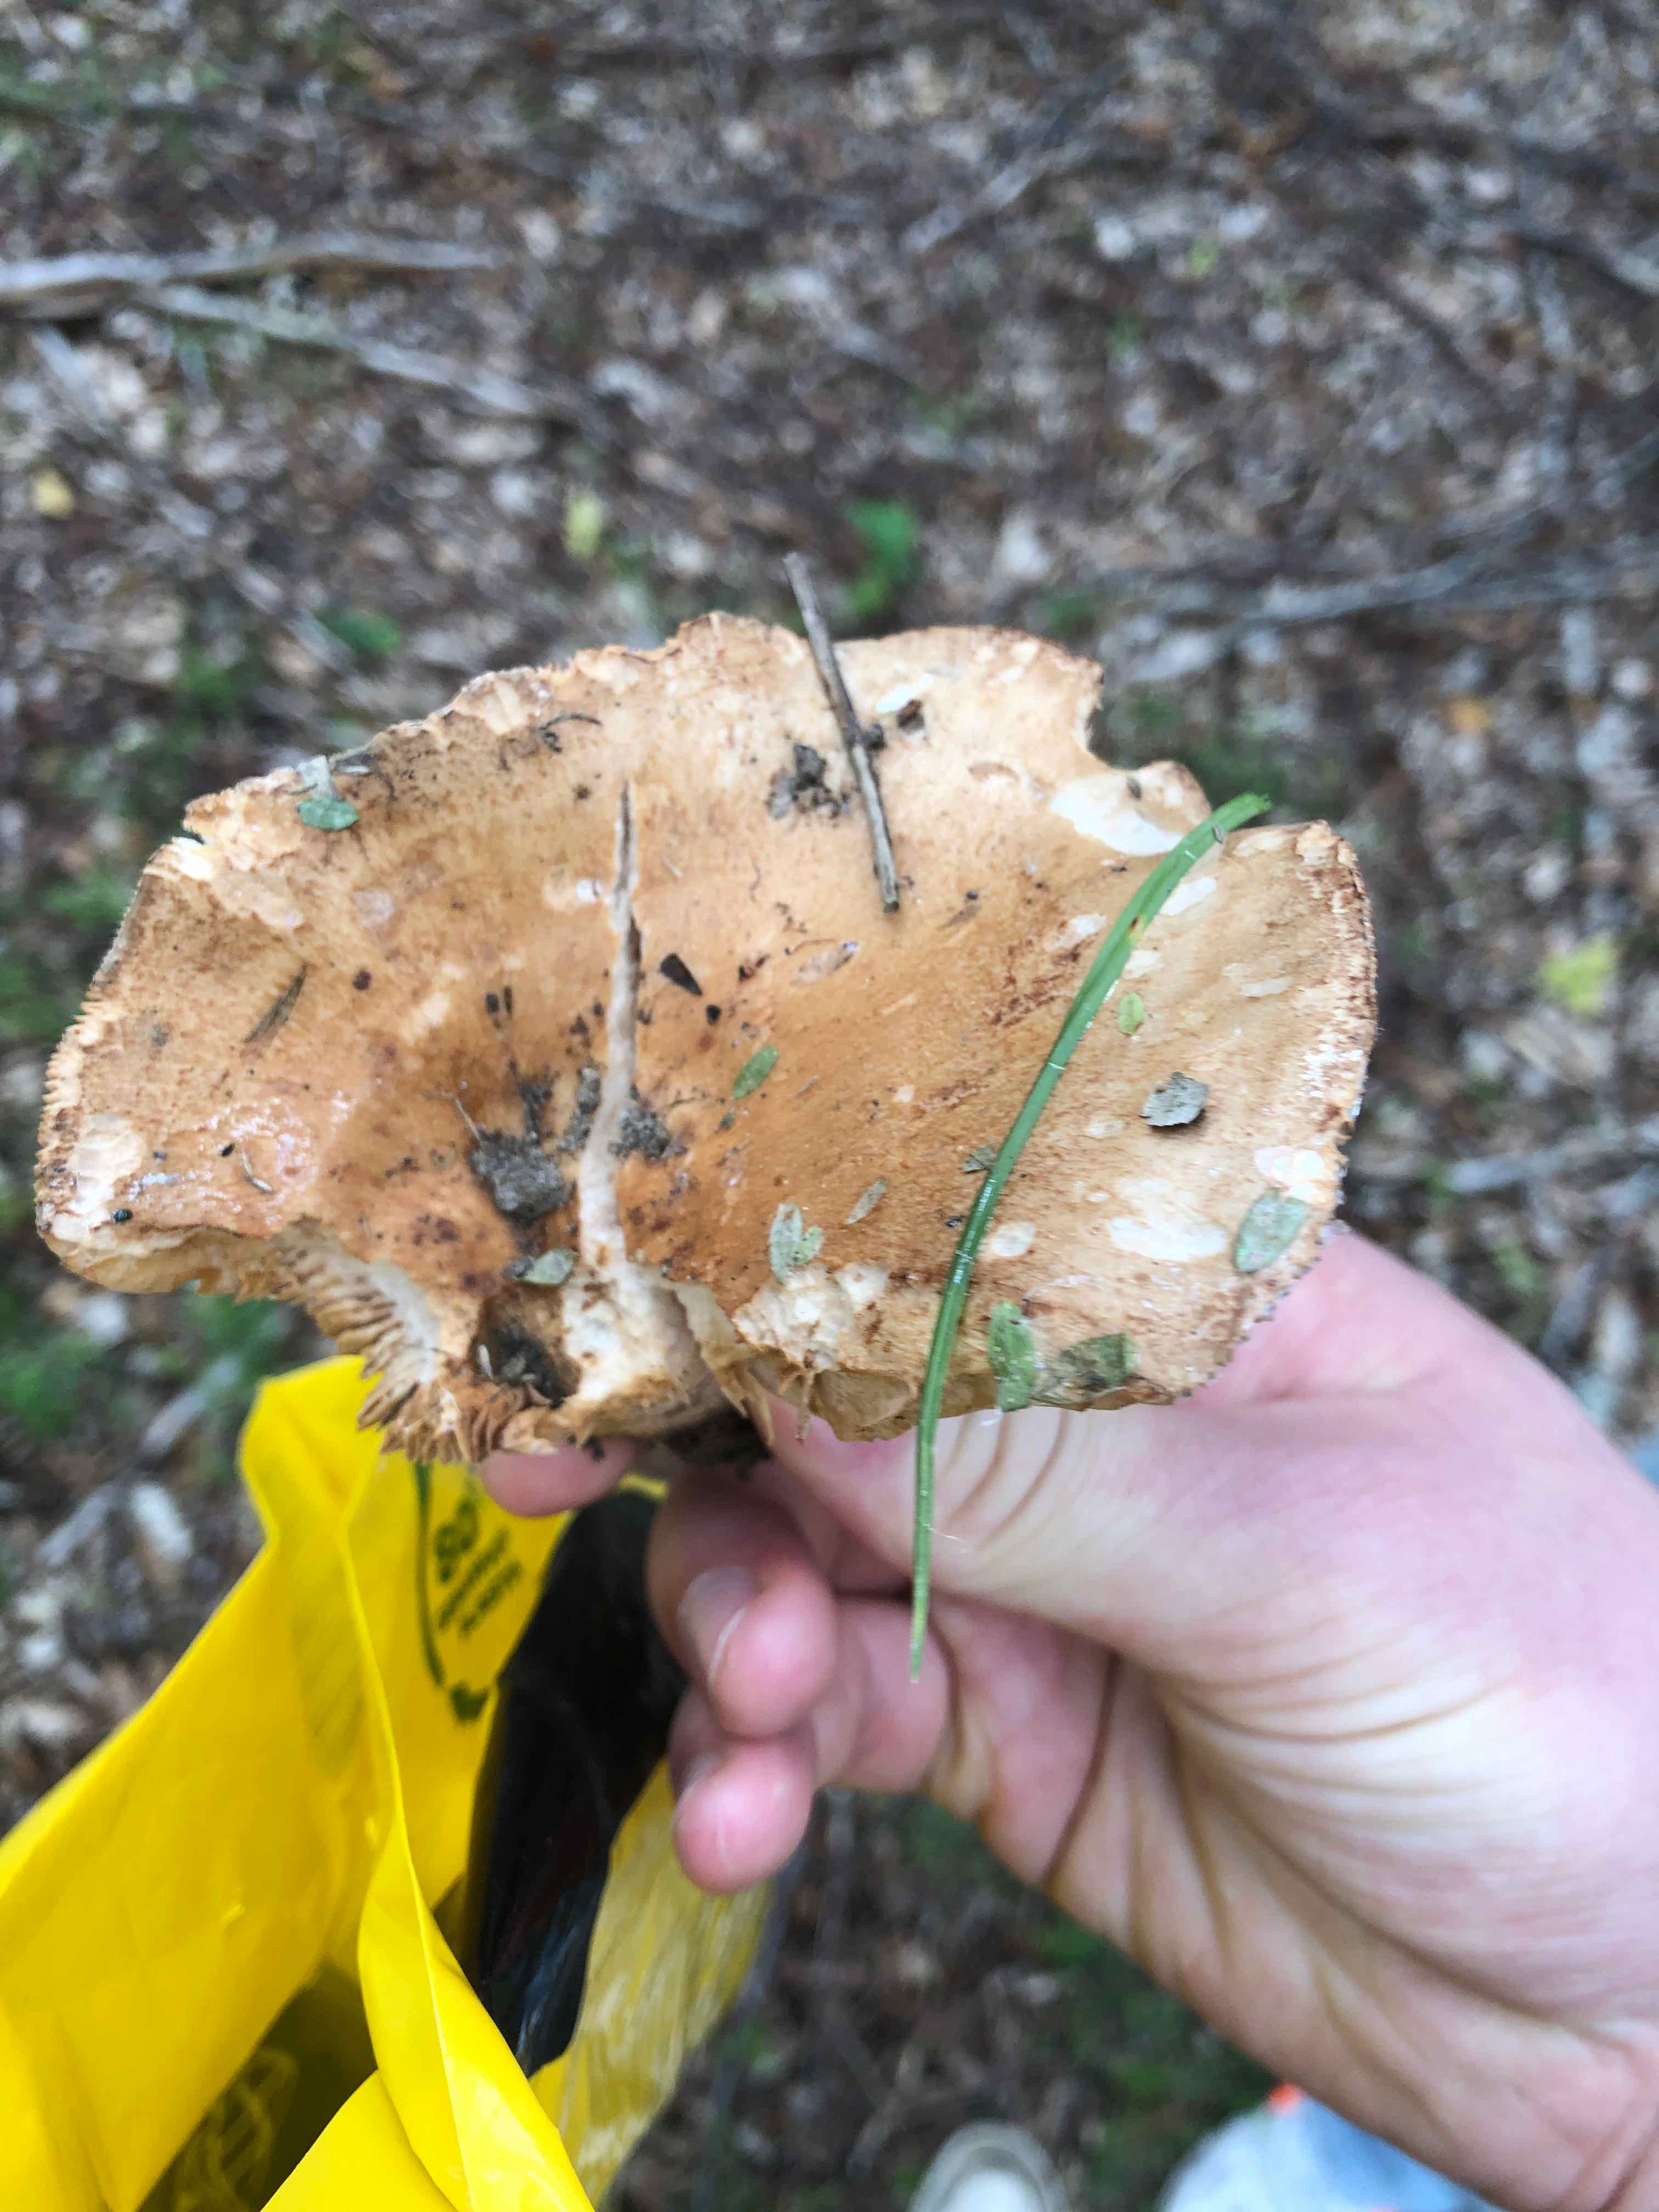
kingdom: Fungi
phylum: Basidiomycota
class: Agaricomycetes
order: Russulales
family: Russulaceae
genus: Lactarius
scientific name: Lactarius
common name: mælkehat
